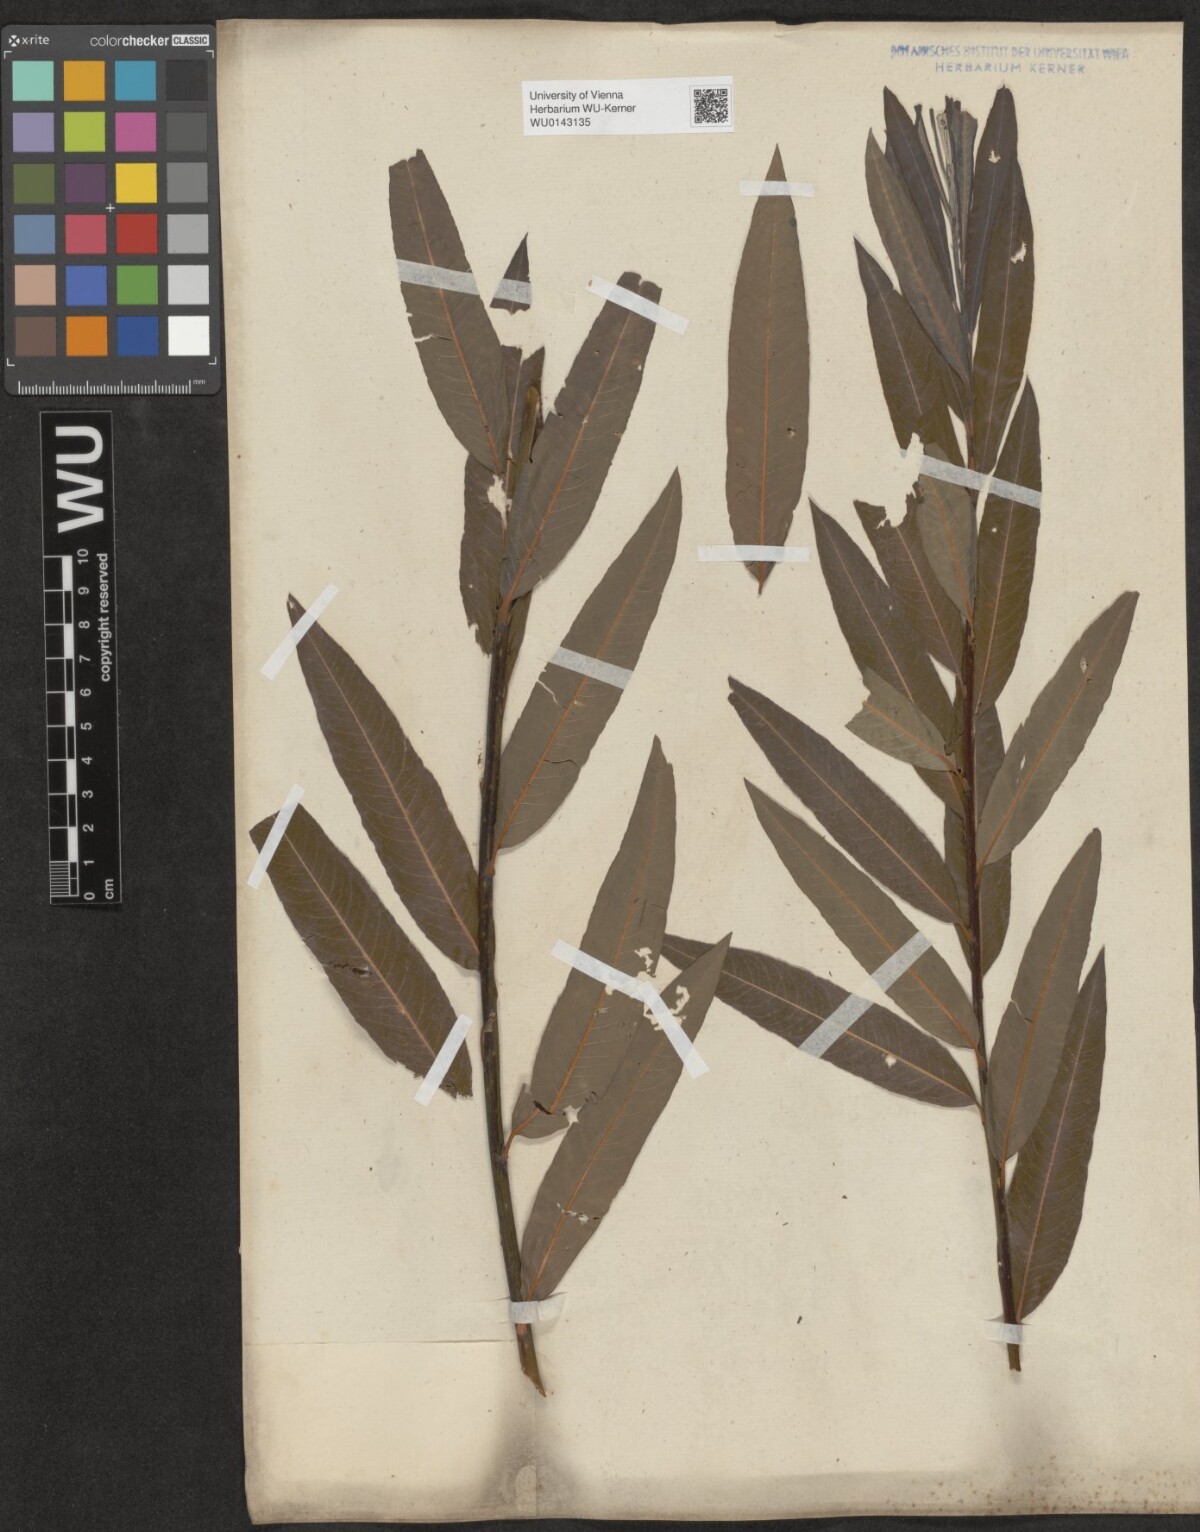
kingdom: Plantae
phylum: Tracheophyta
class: Magnoliopsida
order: Malpighiales
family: Salicaceae
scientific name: Salicaceae
